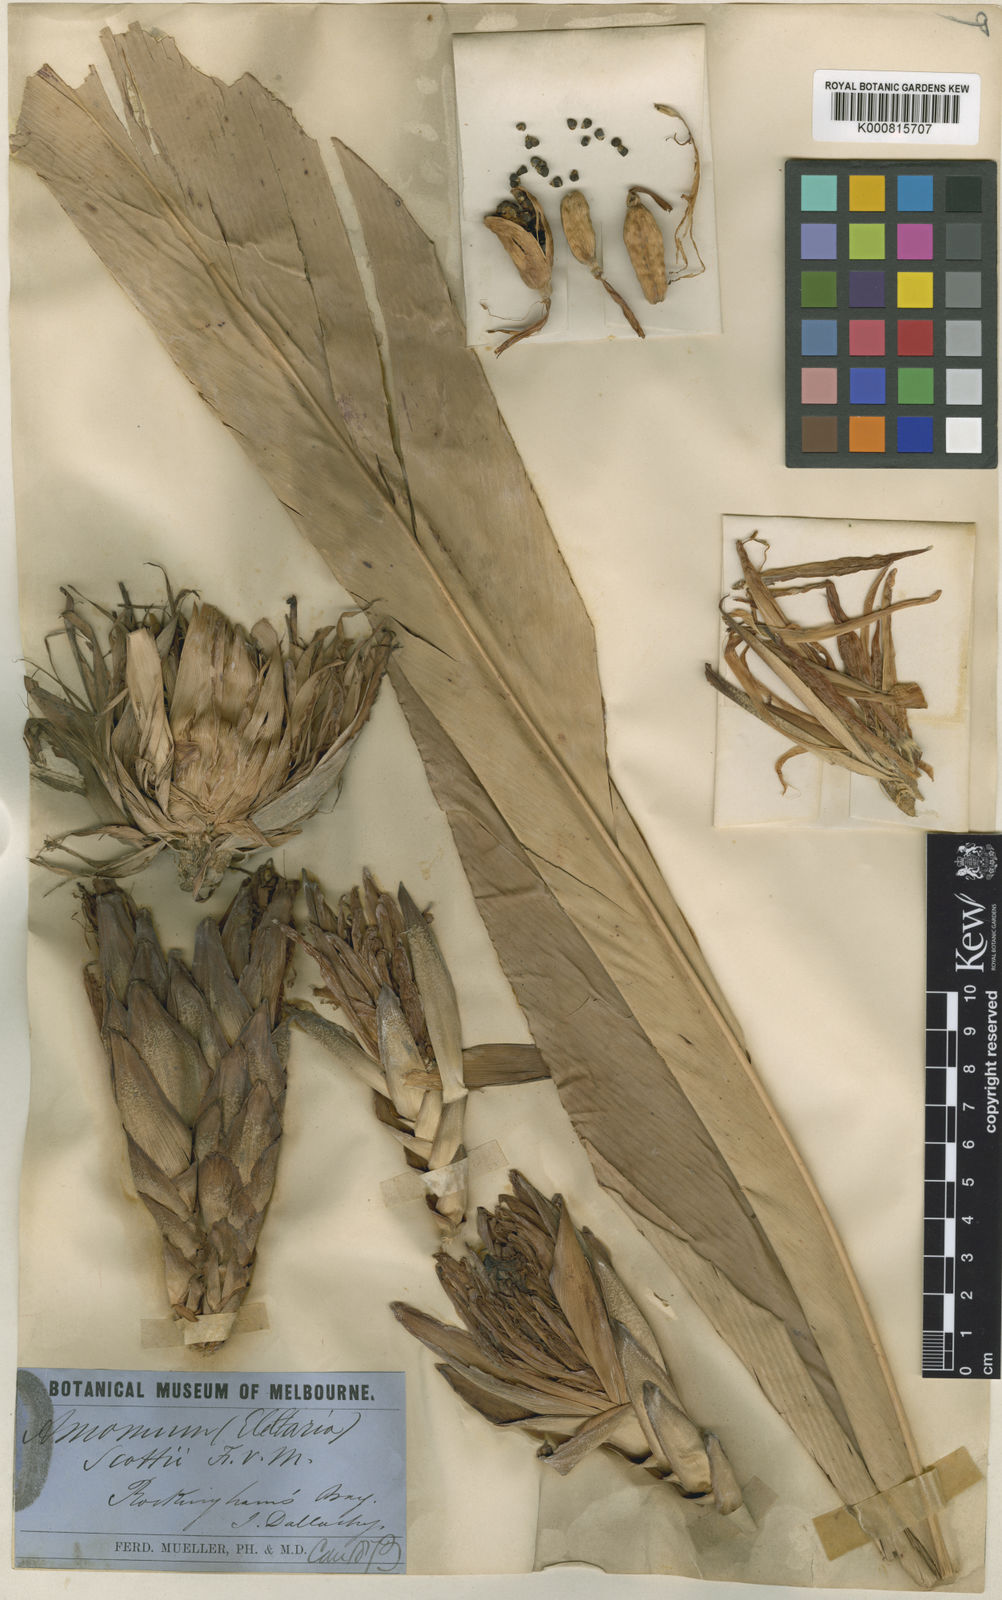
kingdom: Plantae
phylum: Tracheophyta
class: Liliopsida
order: Zingiberales
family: Zingiberaceae
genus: Hornstedtia
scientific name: Hornstedtia scottiana
